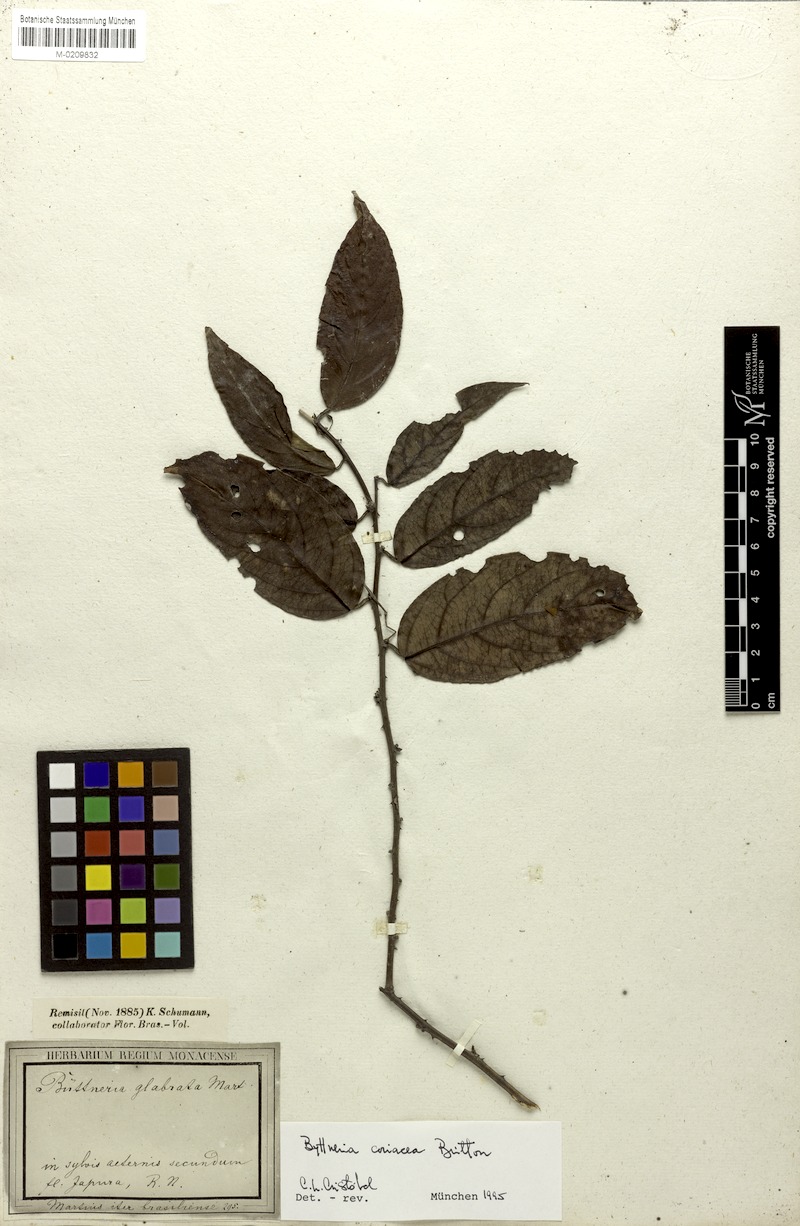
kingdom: Plantae
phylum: Tracheophyta
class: Magnoliopsida
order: Malvales
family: Malvaceae
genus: Byttneria
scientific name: Byttneria coriacea
